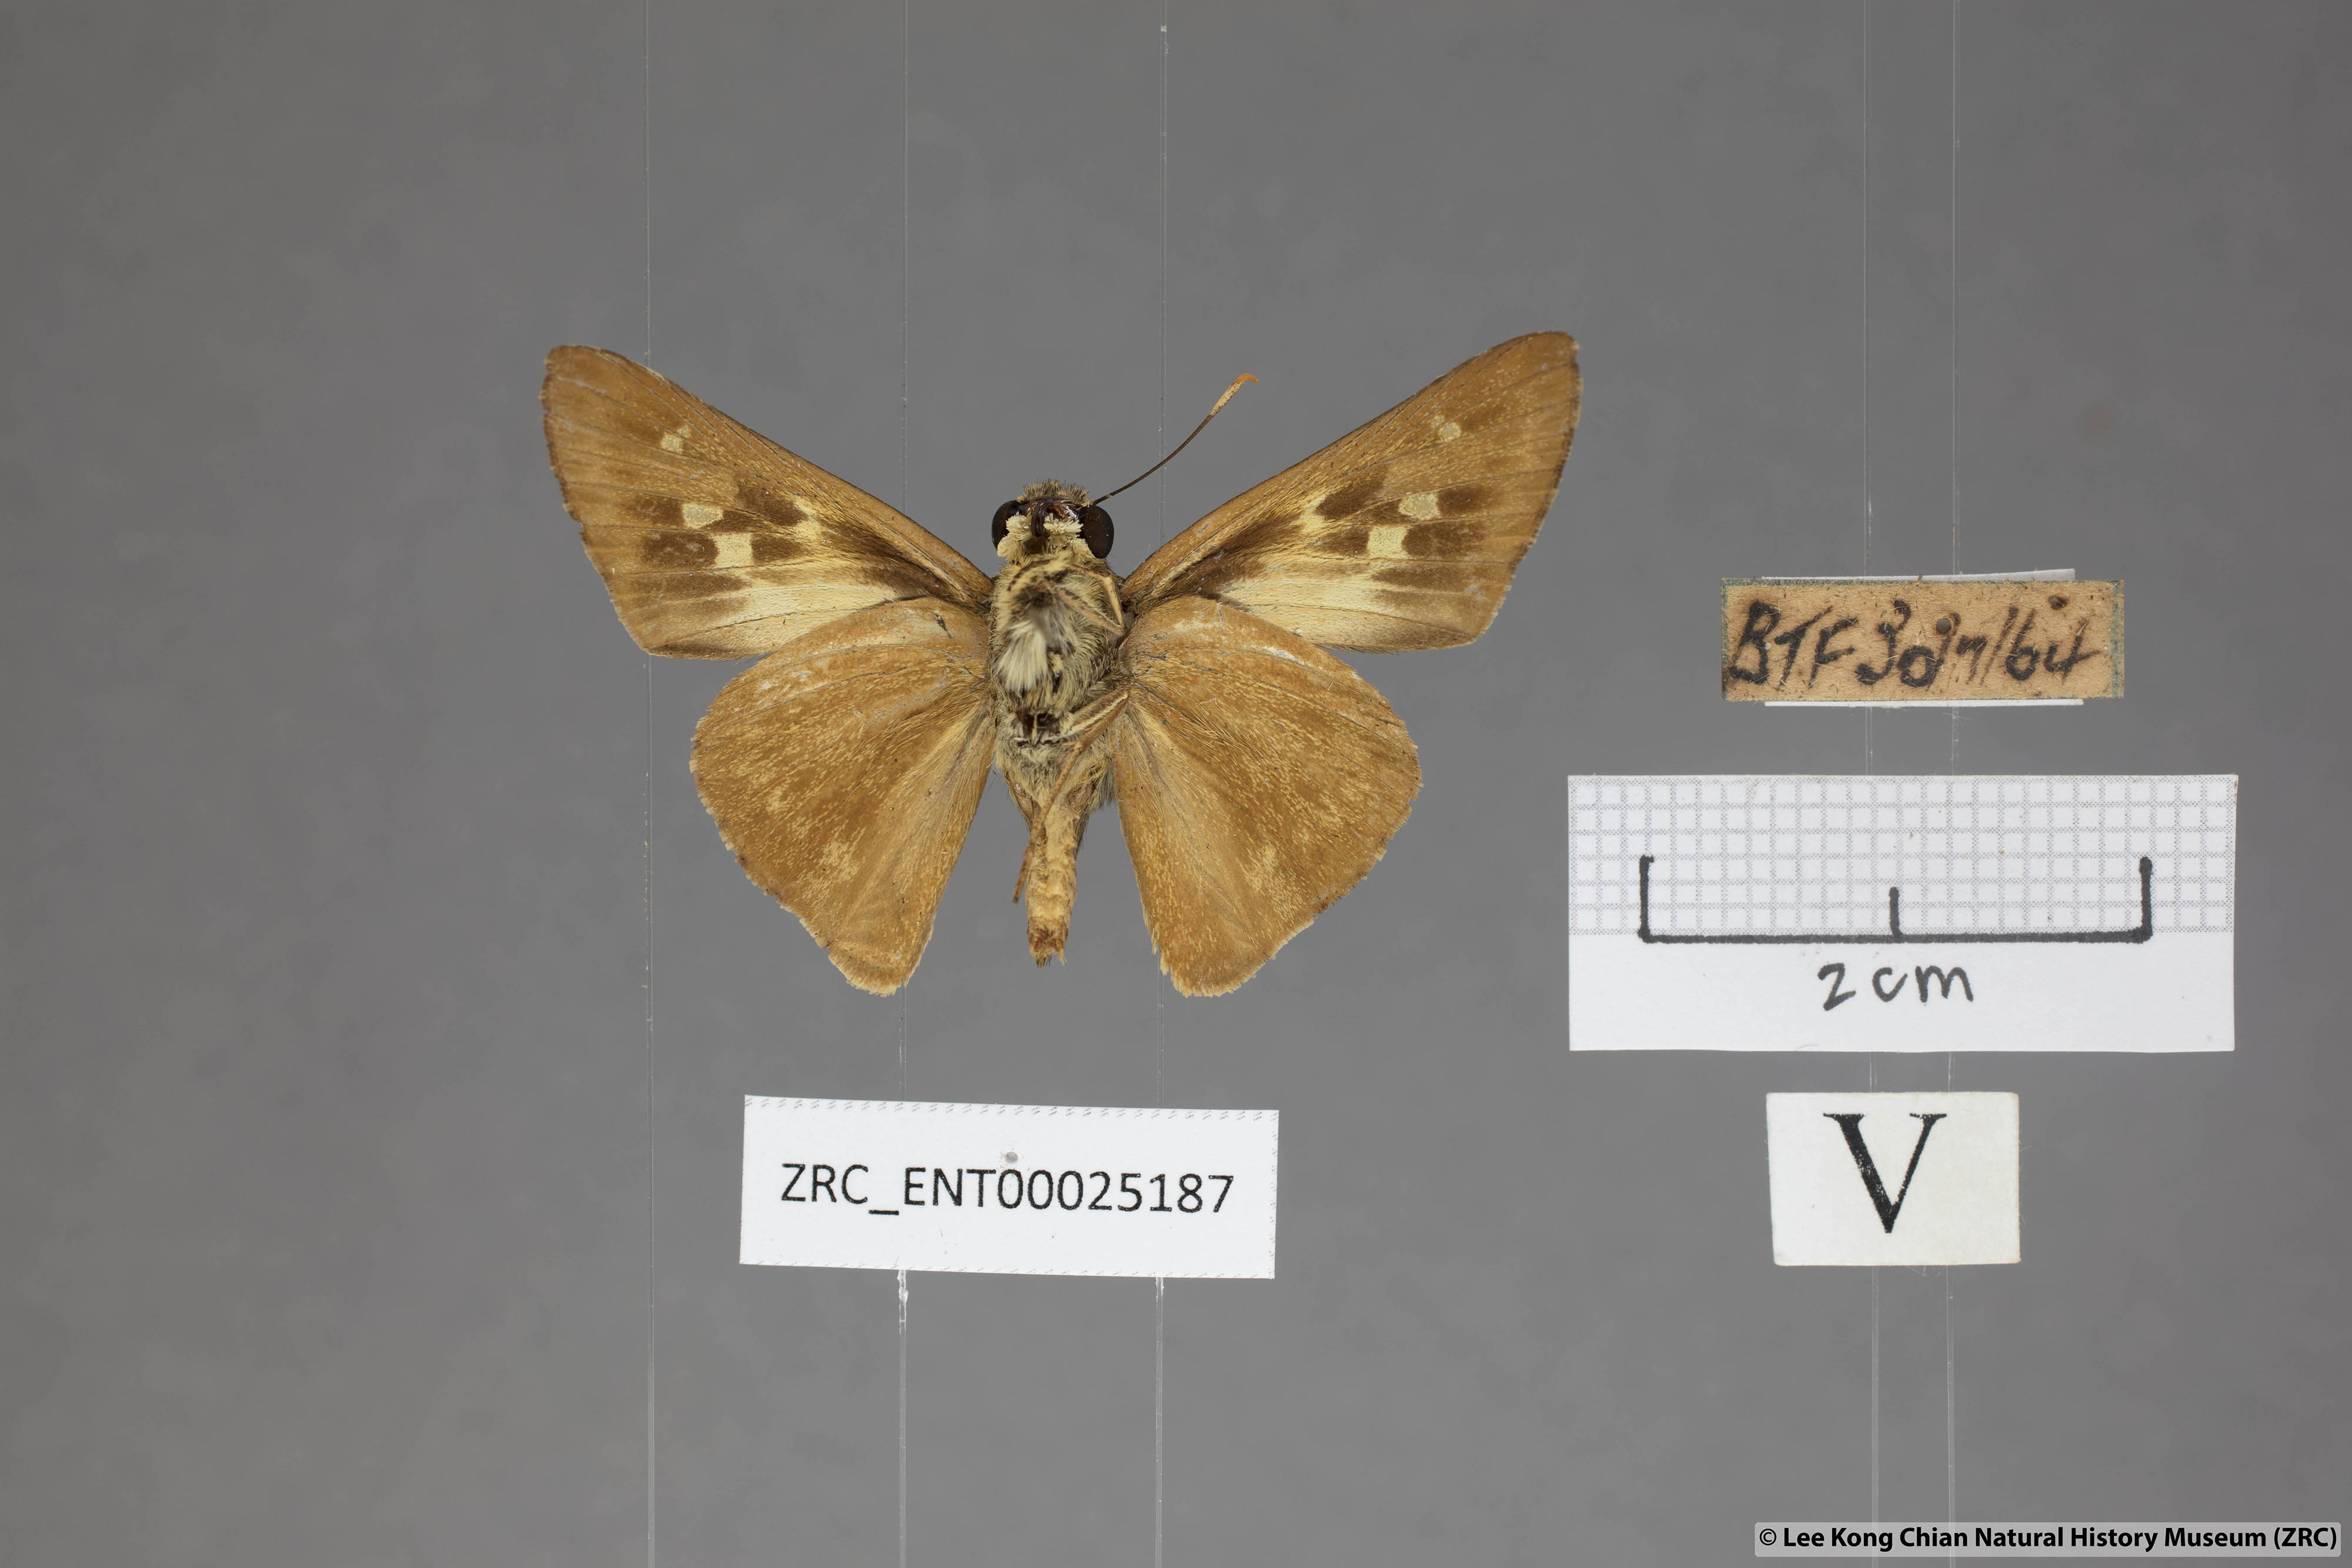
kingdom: Animalia
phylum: Arthropoda
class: Insecta
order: Lepidoptera
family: Hesperiidae
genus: Pithauria
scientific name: Pithauria stramineipennis
